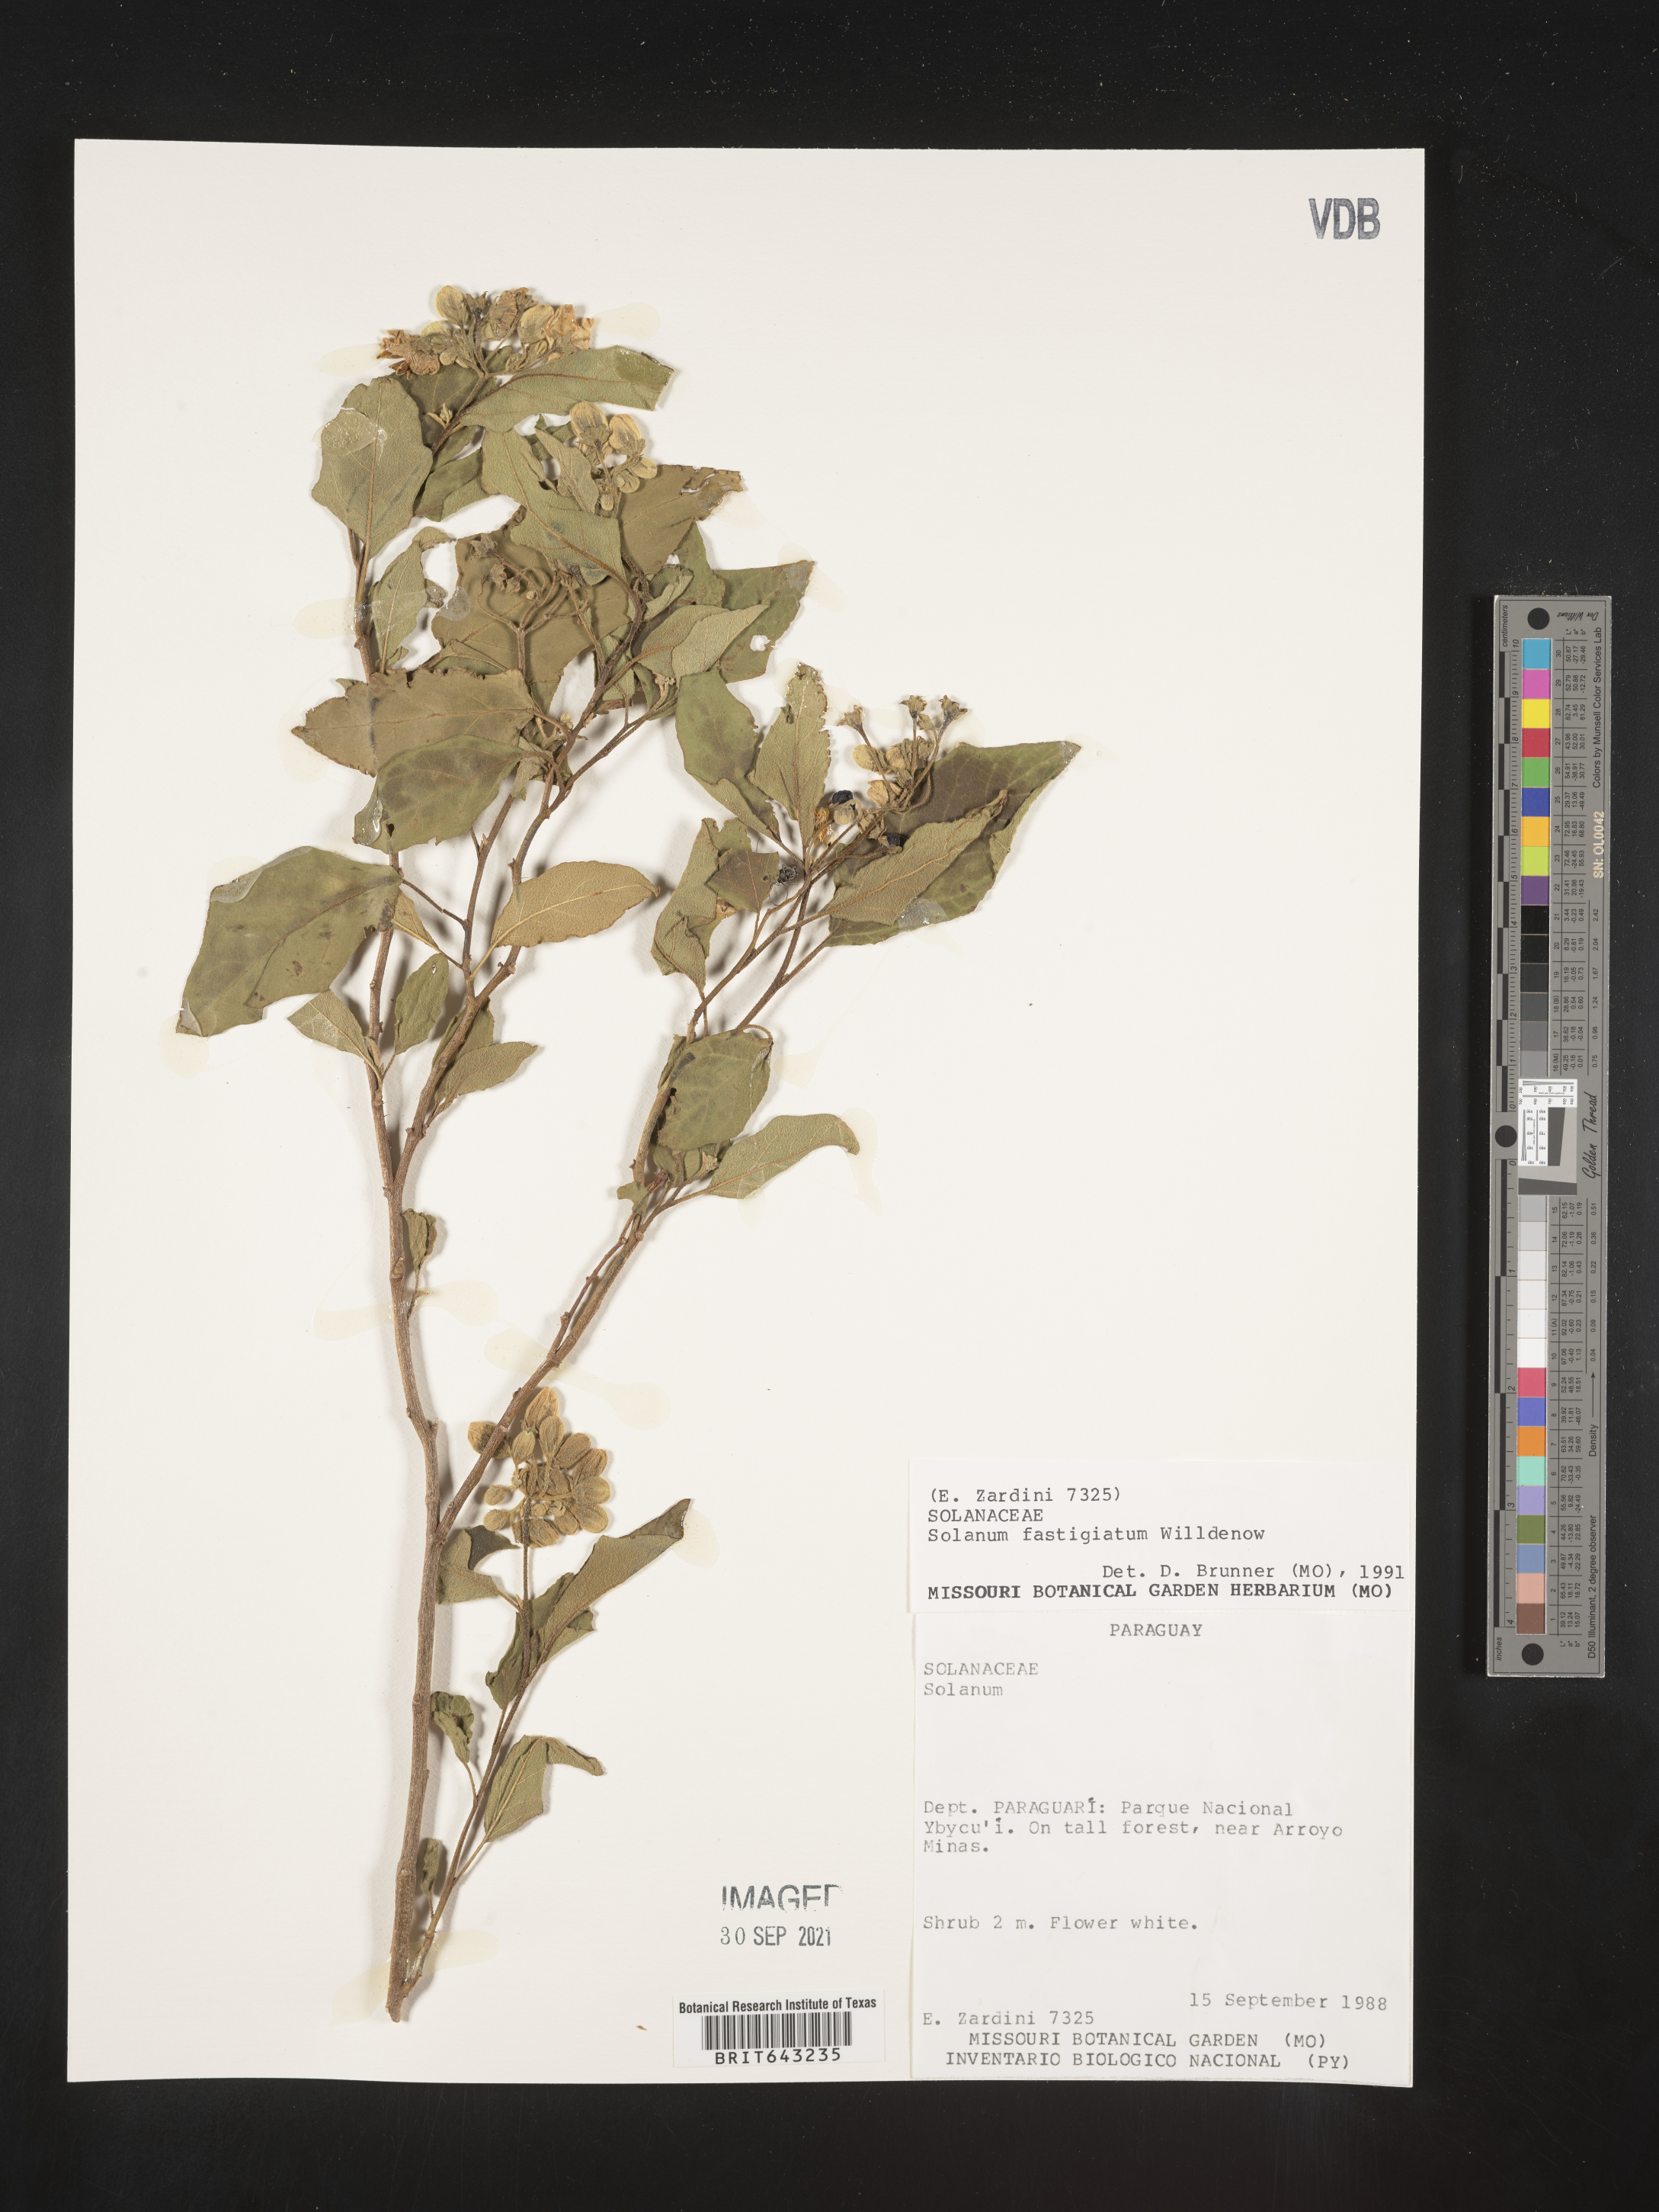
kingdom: Plantae
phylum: Tracheophyta
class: Magnoliopsida
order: Solanales
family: Solanaceae
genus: Solanum
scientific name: Solanum
